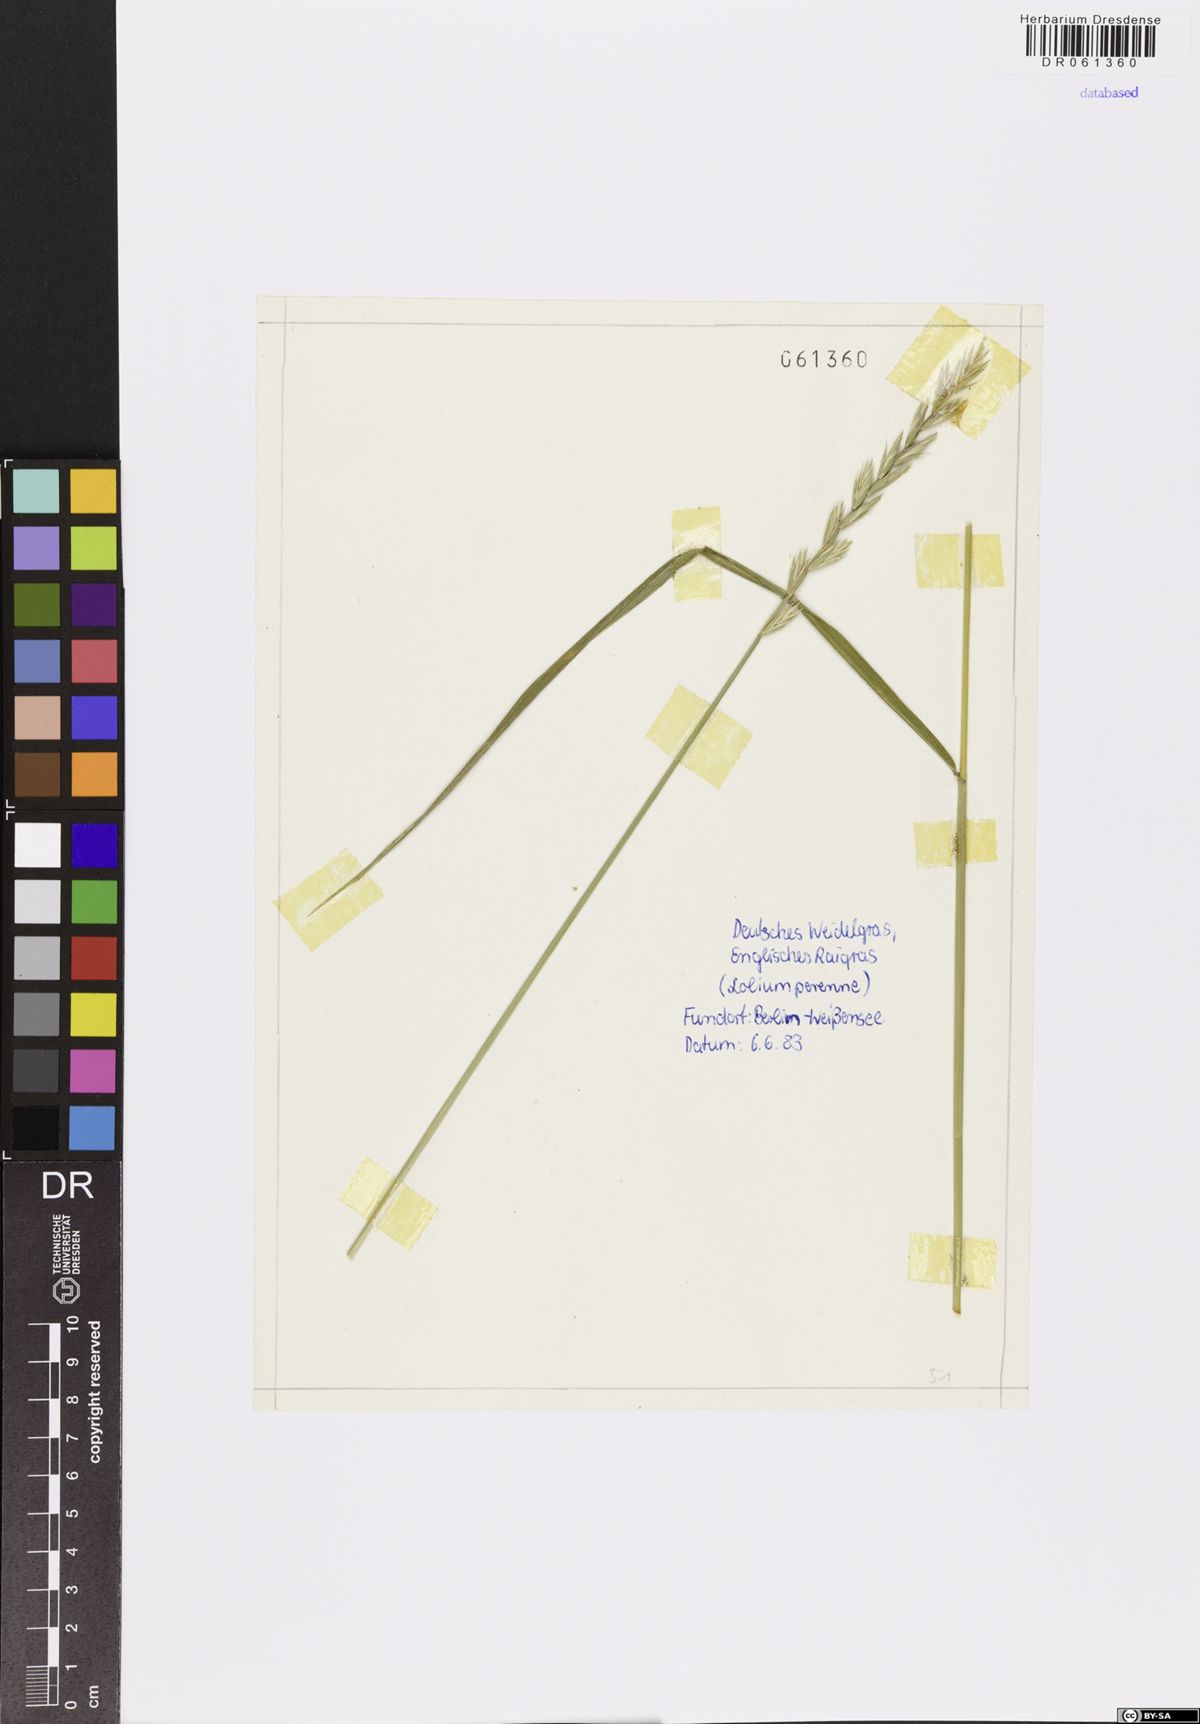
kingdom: Plantae
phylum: Tracheophyta
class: Liliopsida
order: Poales
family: Poaceae
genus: Lolium
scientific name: Lolium perenne
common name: Perennial ryegrass
